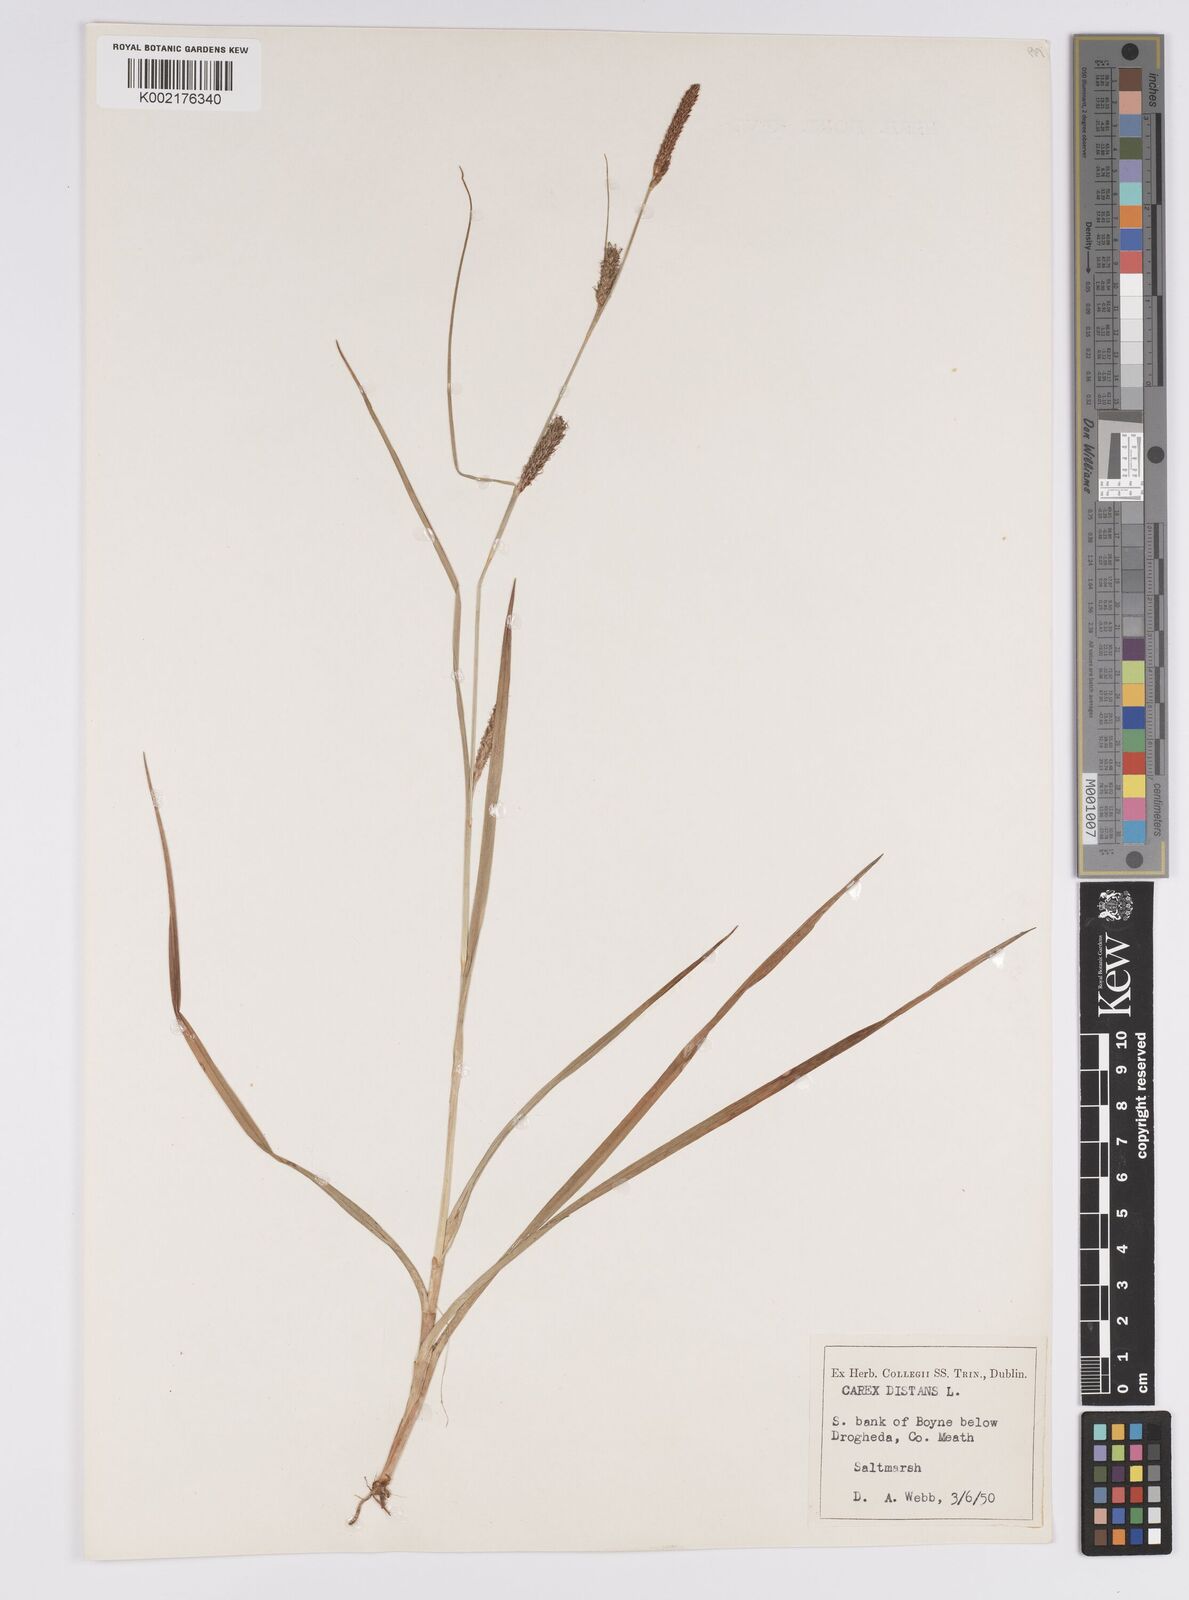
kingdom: Plantae
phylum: Tracheophyta
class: Liliopsida
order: Poales
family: Cyperaceae
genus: Carex
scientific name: Carex distans
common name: Distant sedge
